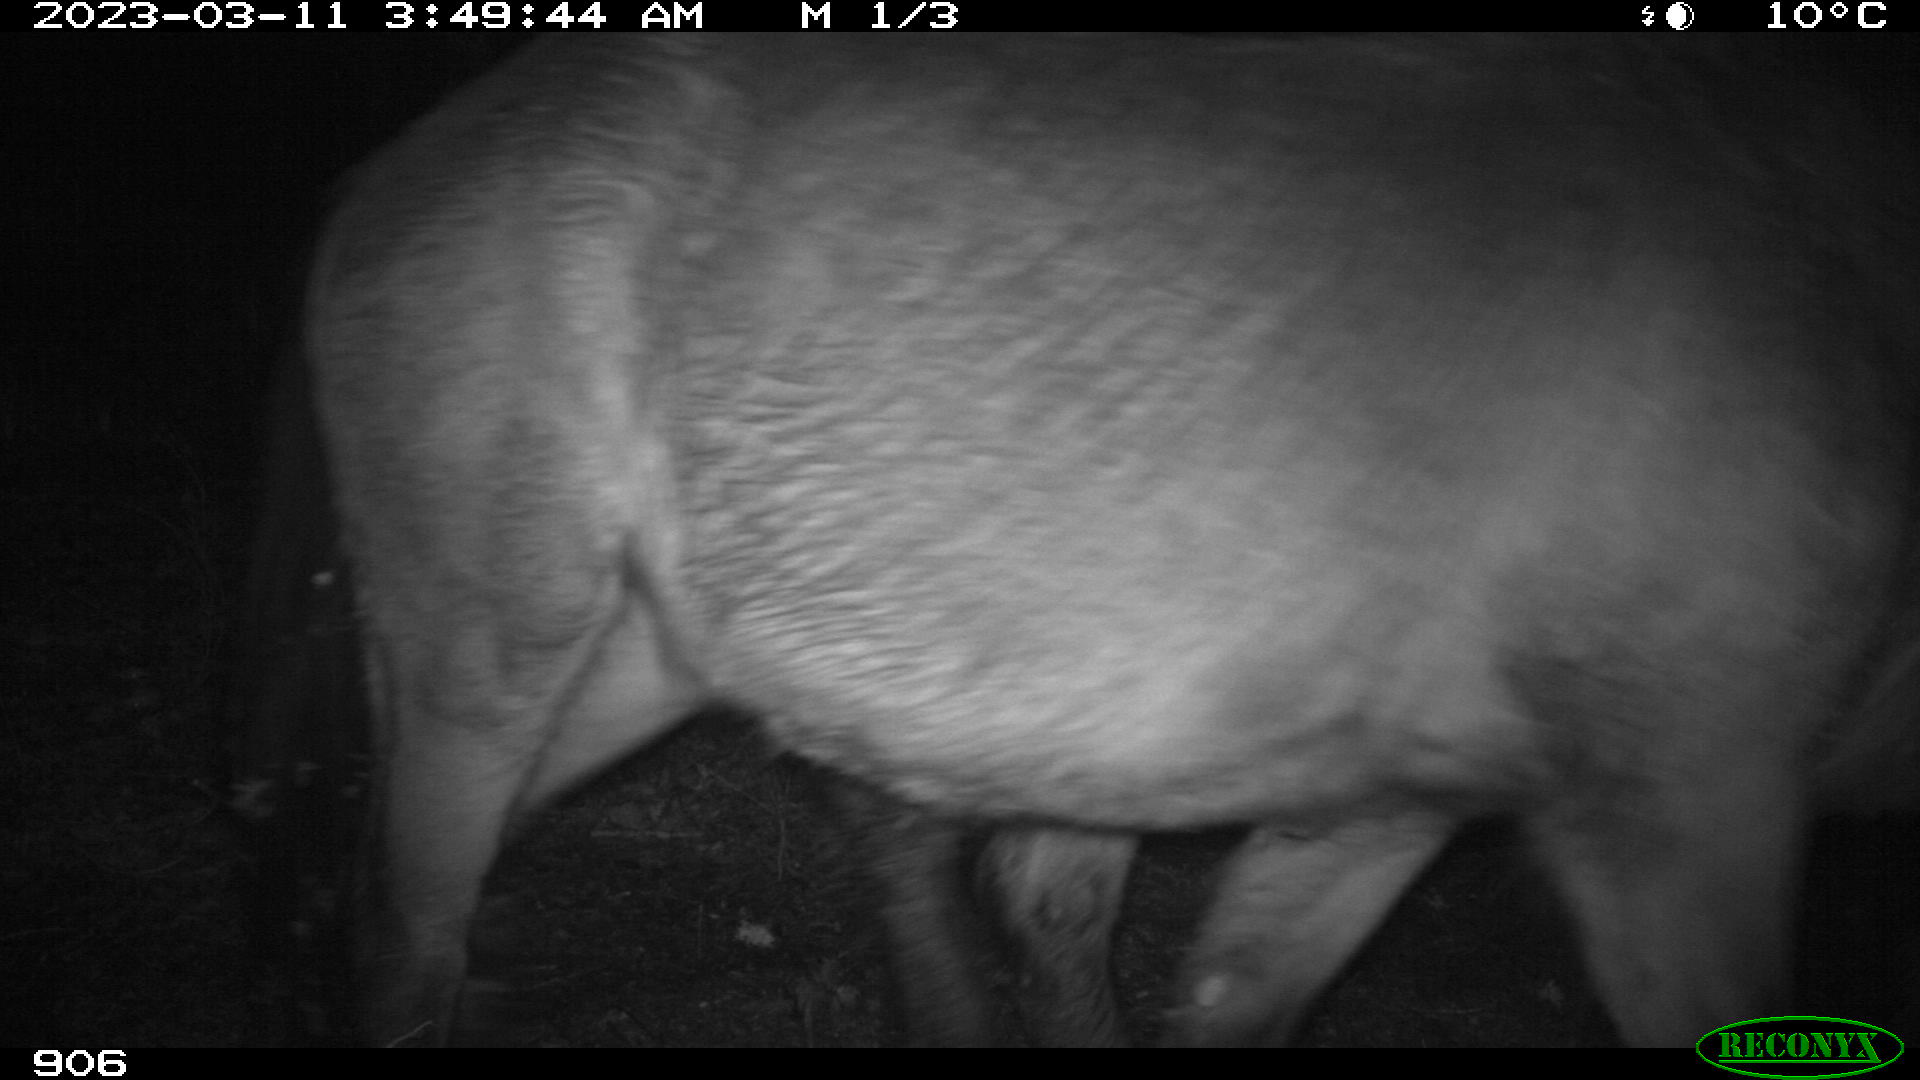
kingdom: Animalia
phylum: Chordata
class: Mammalia
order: Perissodactyla
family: Equidae
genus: Equus
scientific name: Equus caballus
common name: Horse
